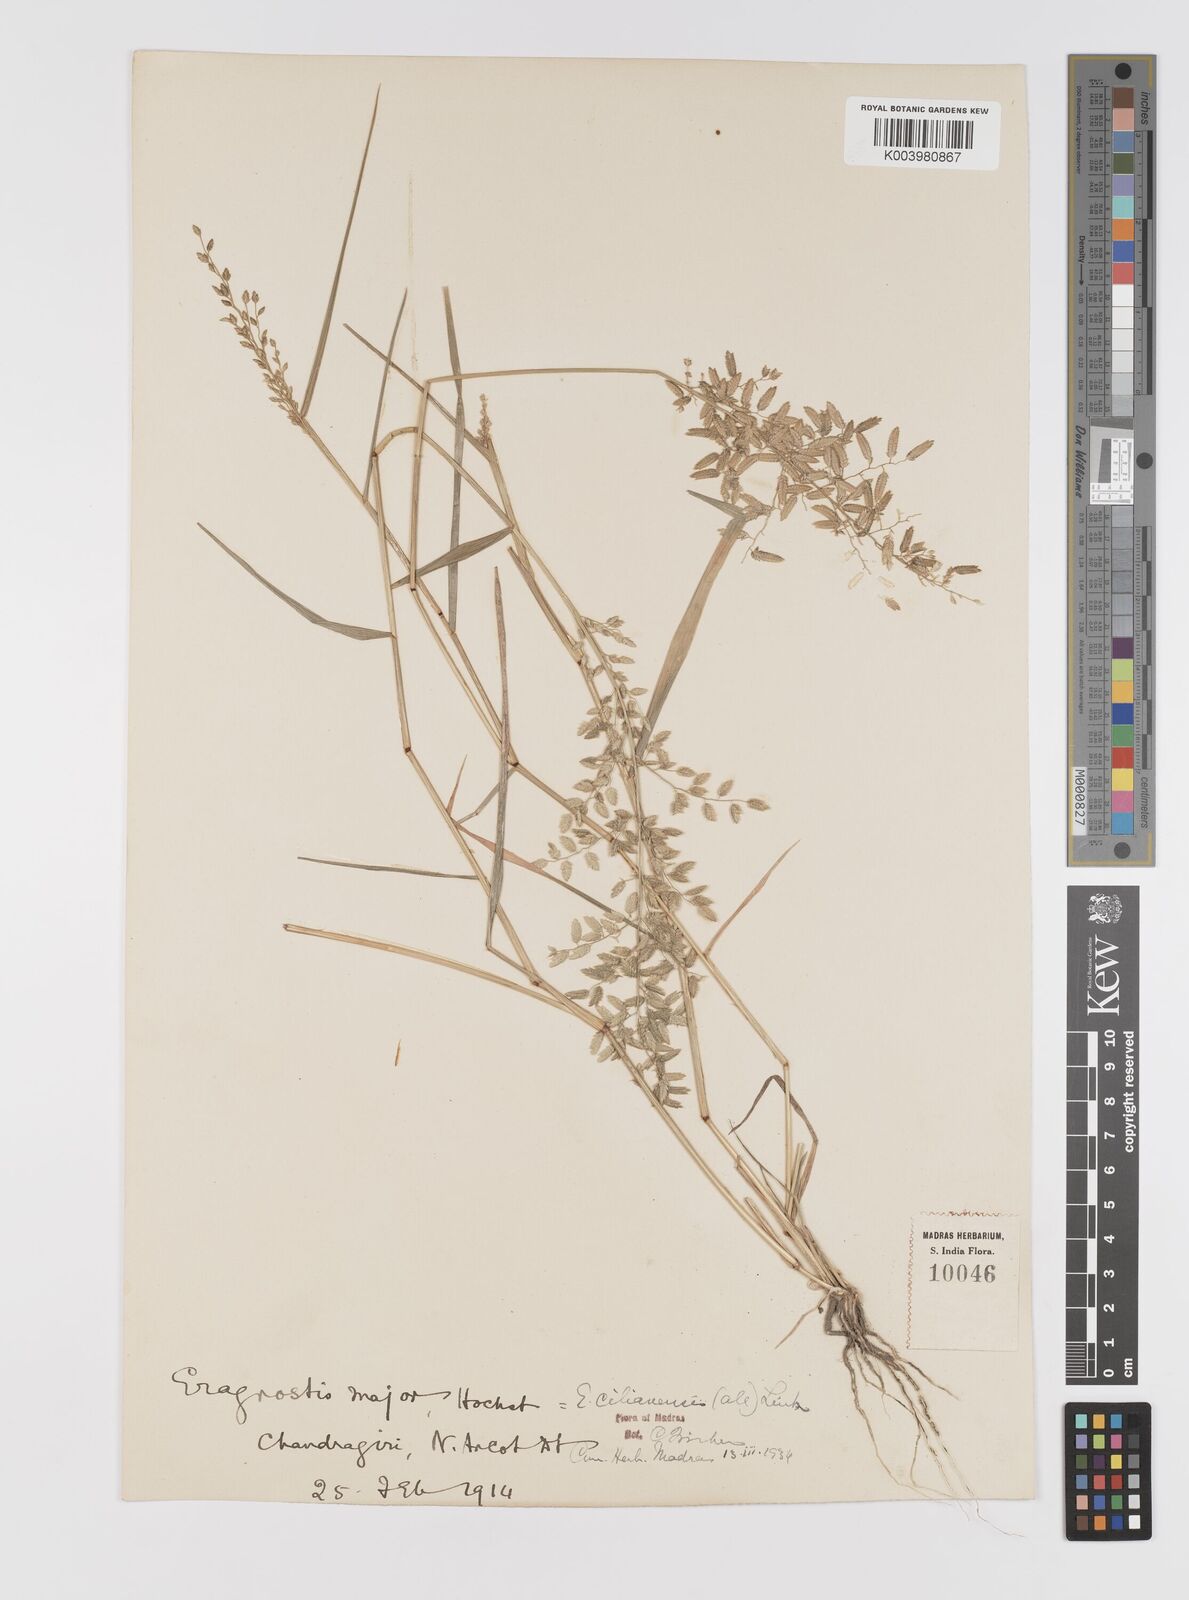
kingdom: Plantae
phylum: Tracheophyta
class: Liliopsida
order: Poales
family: Poaceae
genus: Eragrostis
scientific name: Eragrostis cilianensis
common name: Stinkgrass
